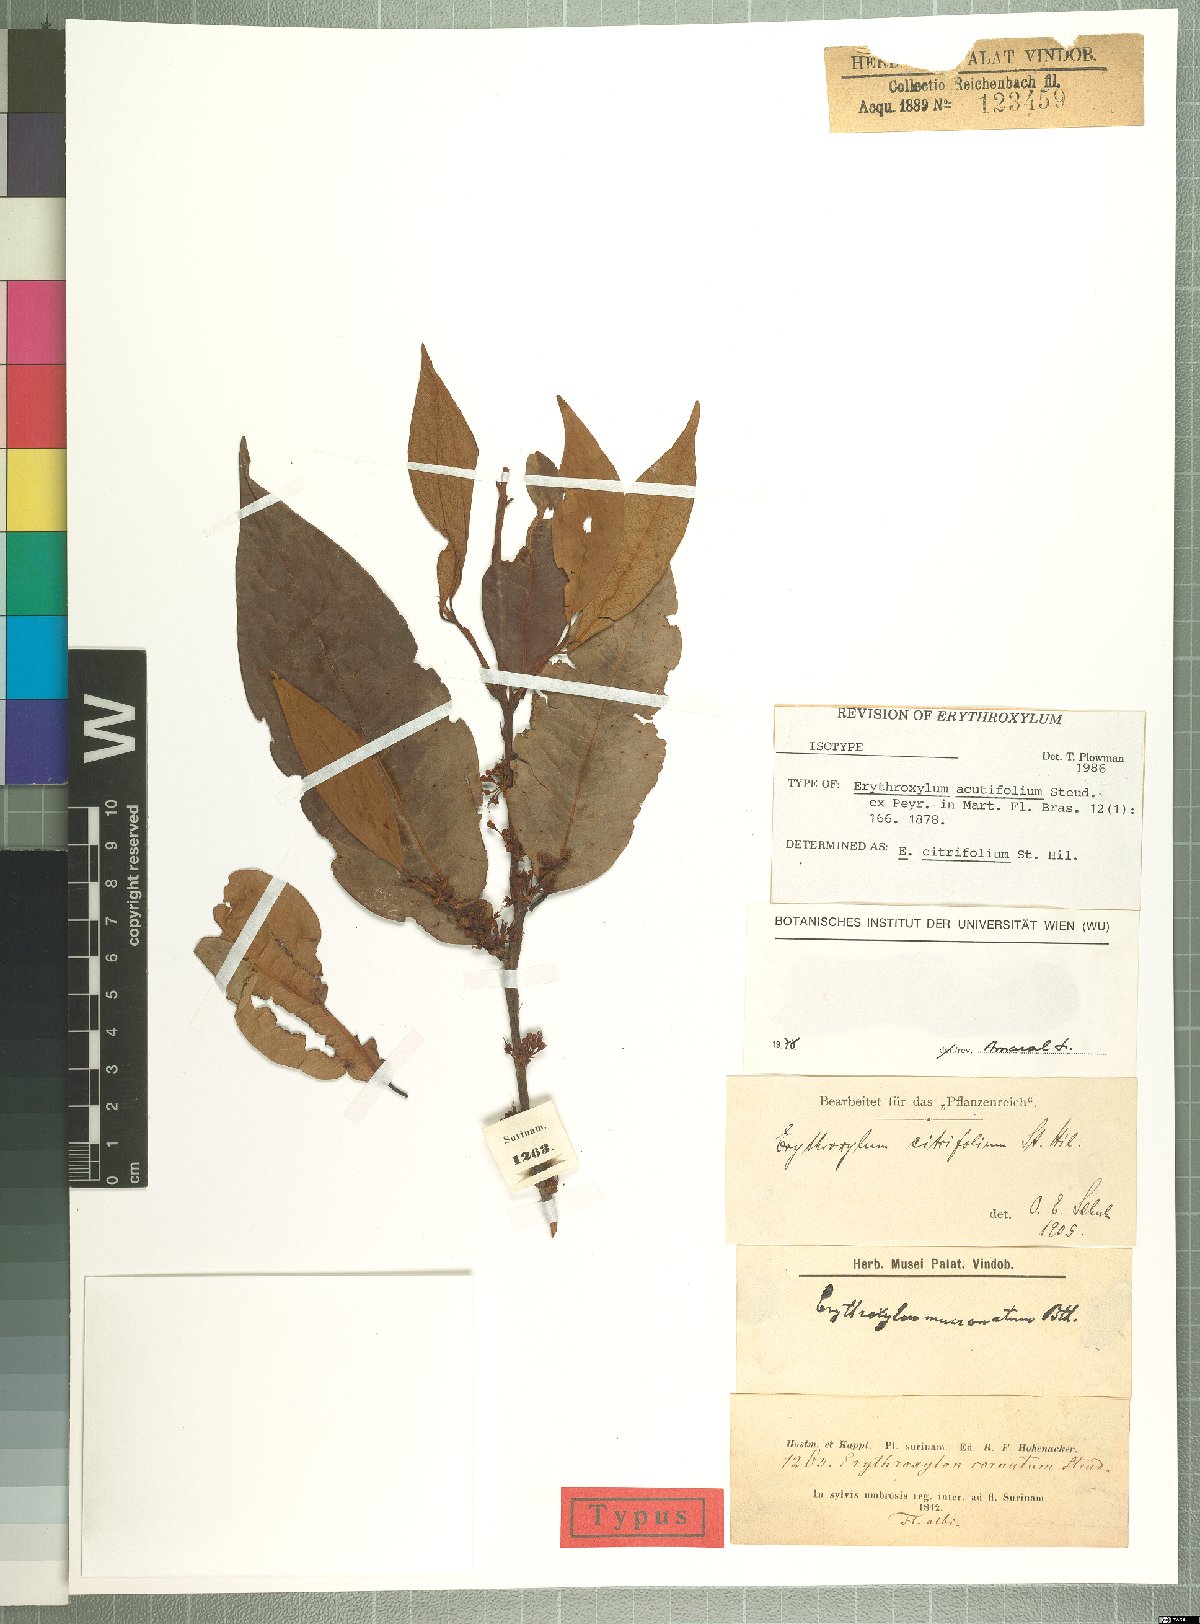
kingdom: Plantae
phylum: Tracheophyta
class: Magnoliopsida
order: Malpighiales
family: Erythroxylaceae
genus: Erythroxylum
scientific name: Erythroxylum citrifolium
